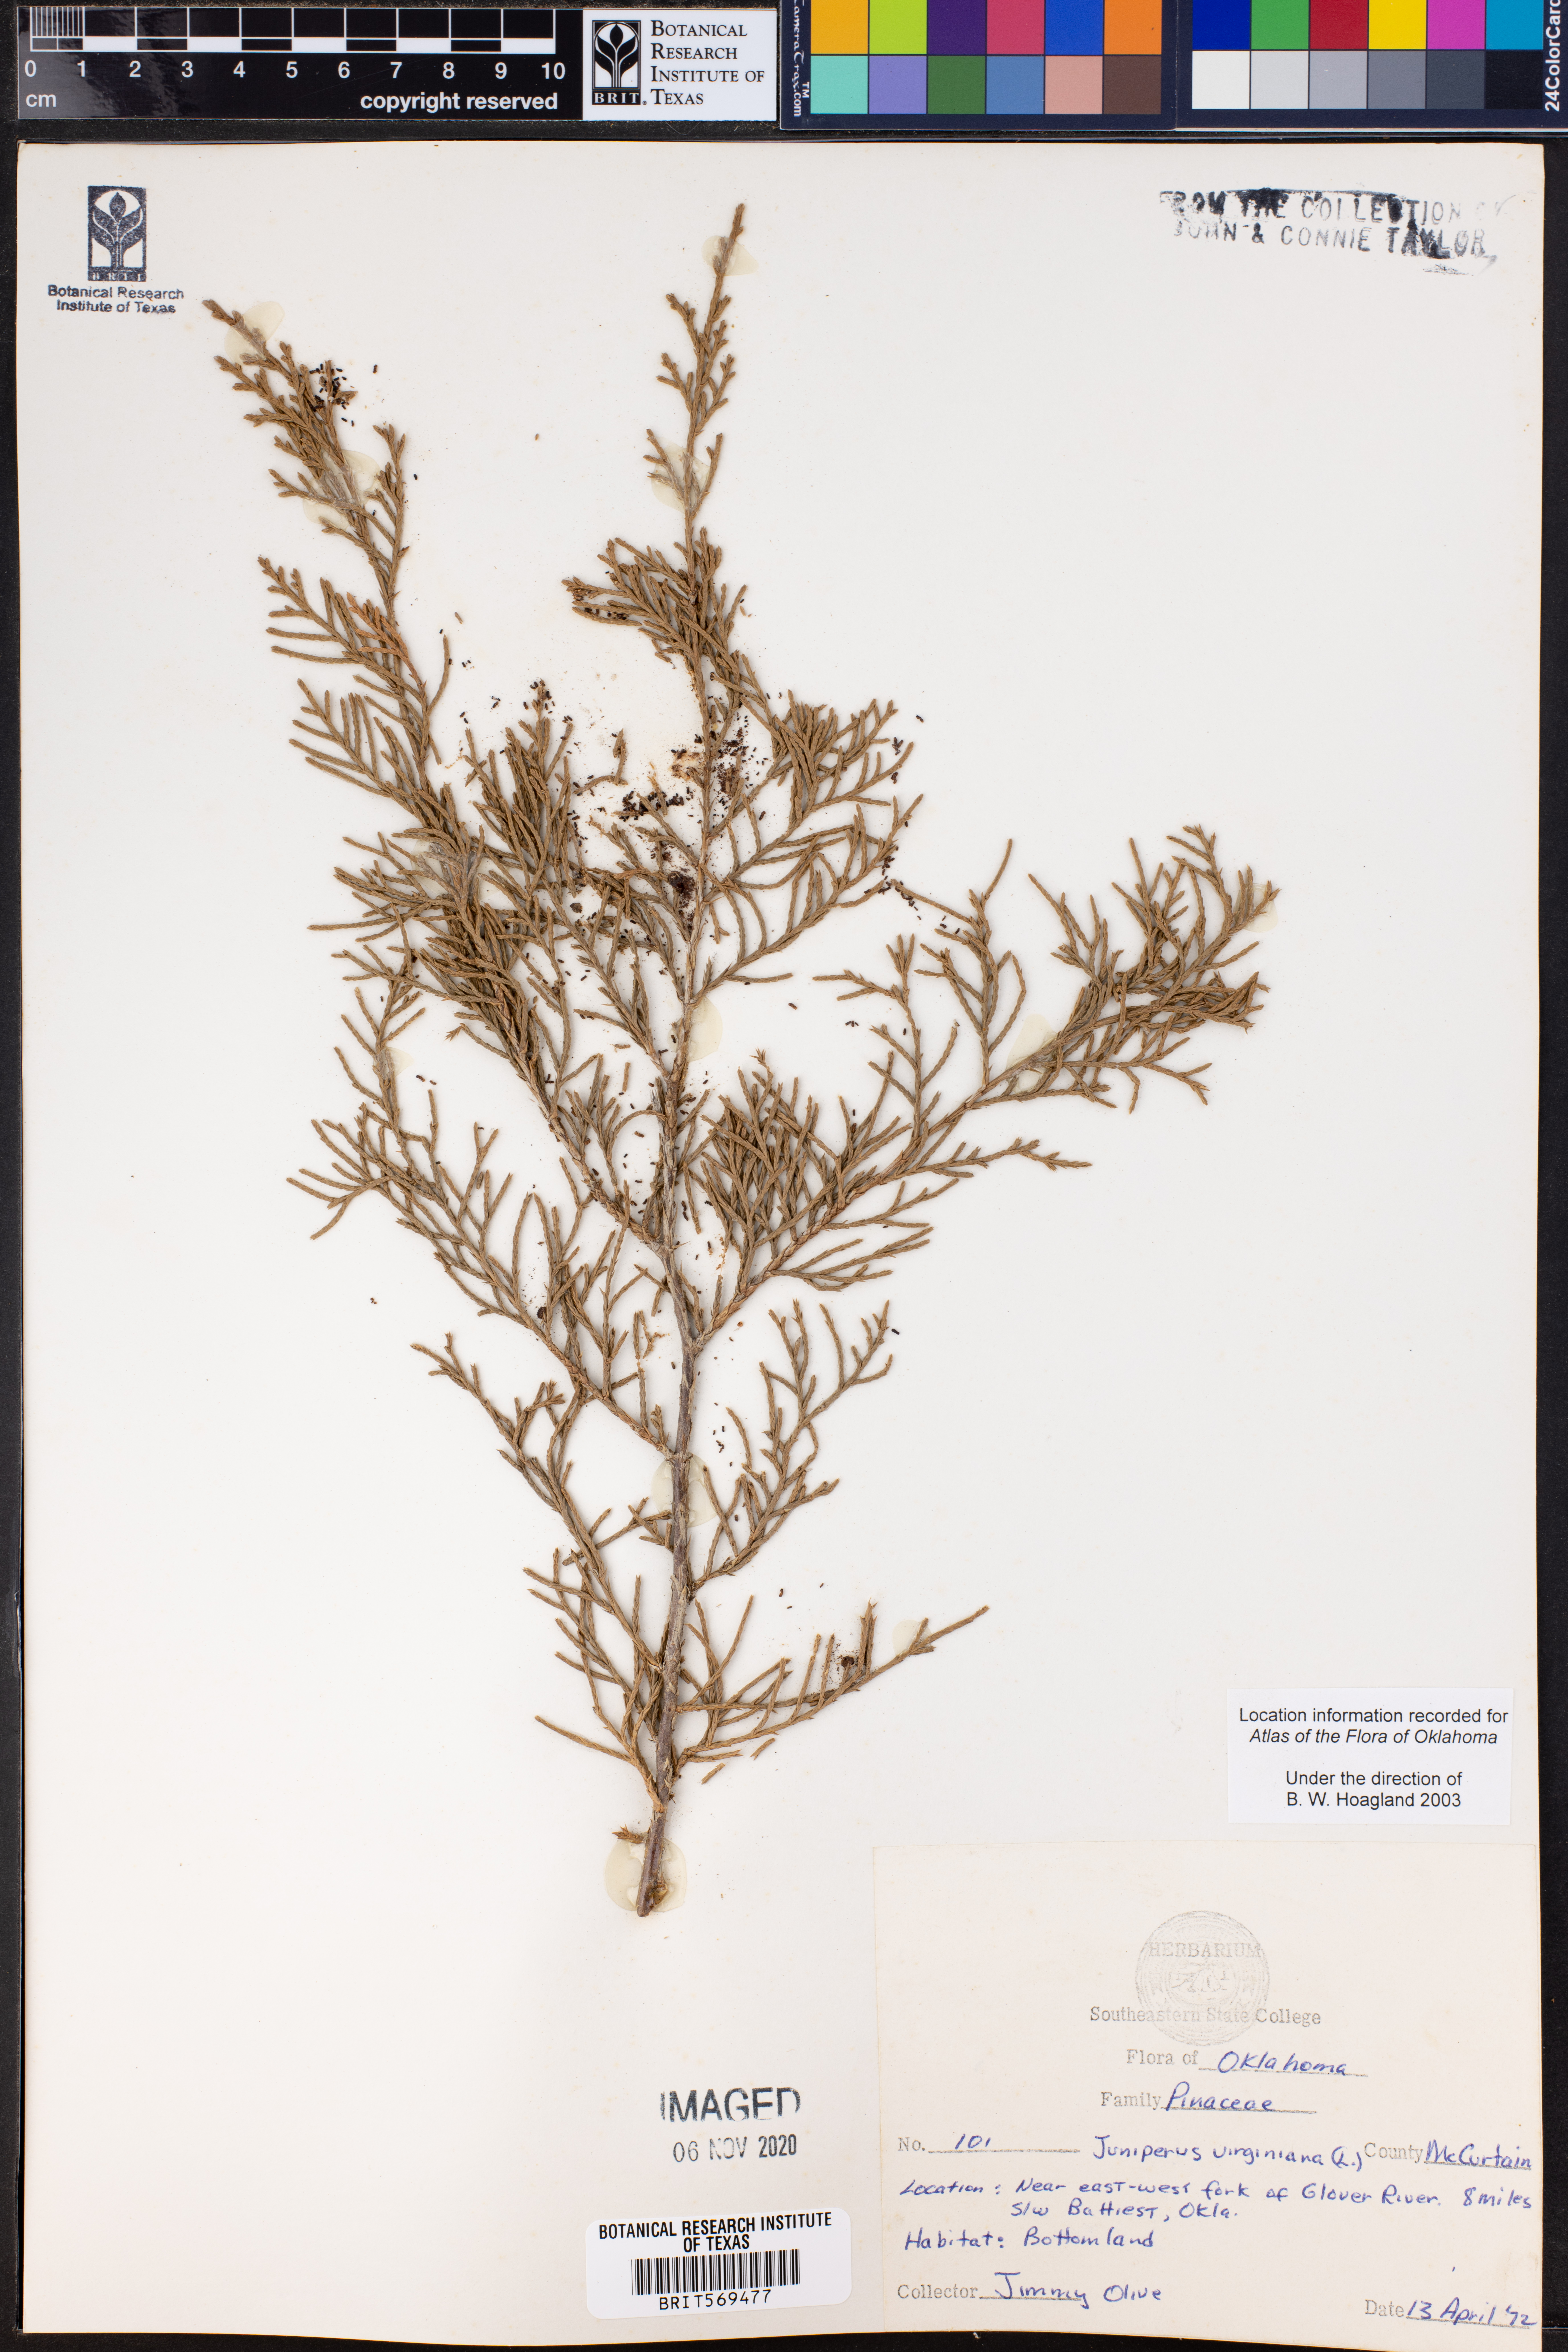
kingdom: Plantae
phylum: Tracheophyta
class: Pinopsida
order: Pinales
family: Cupressaceae
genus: Juniperus
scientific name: Juniperus virginiana
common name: Red juniper
